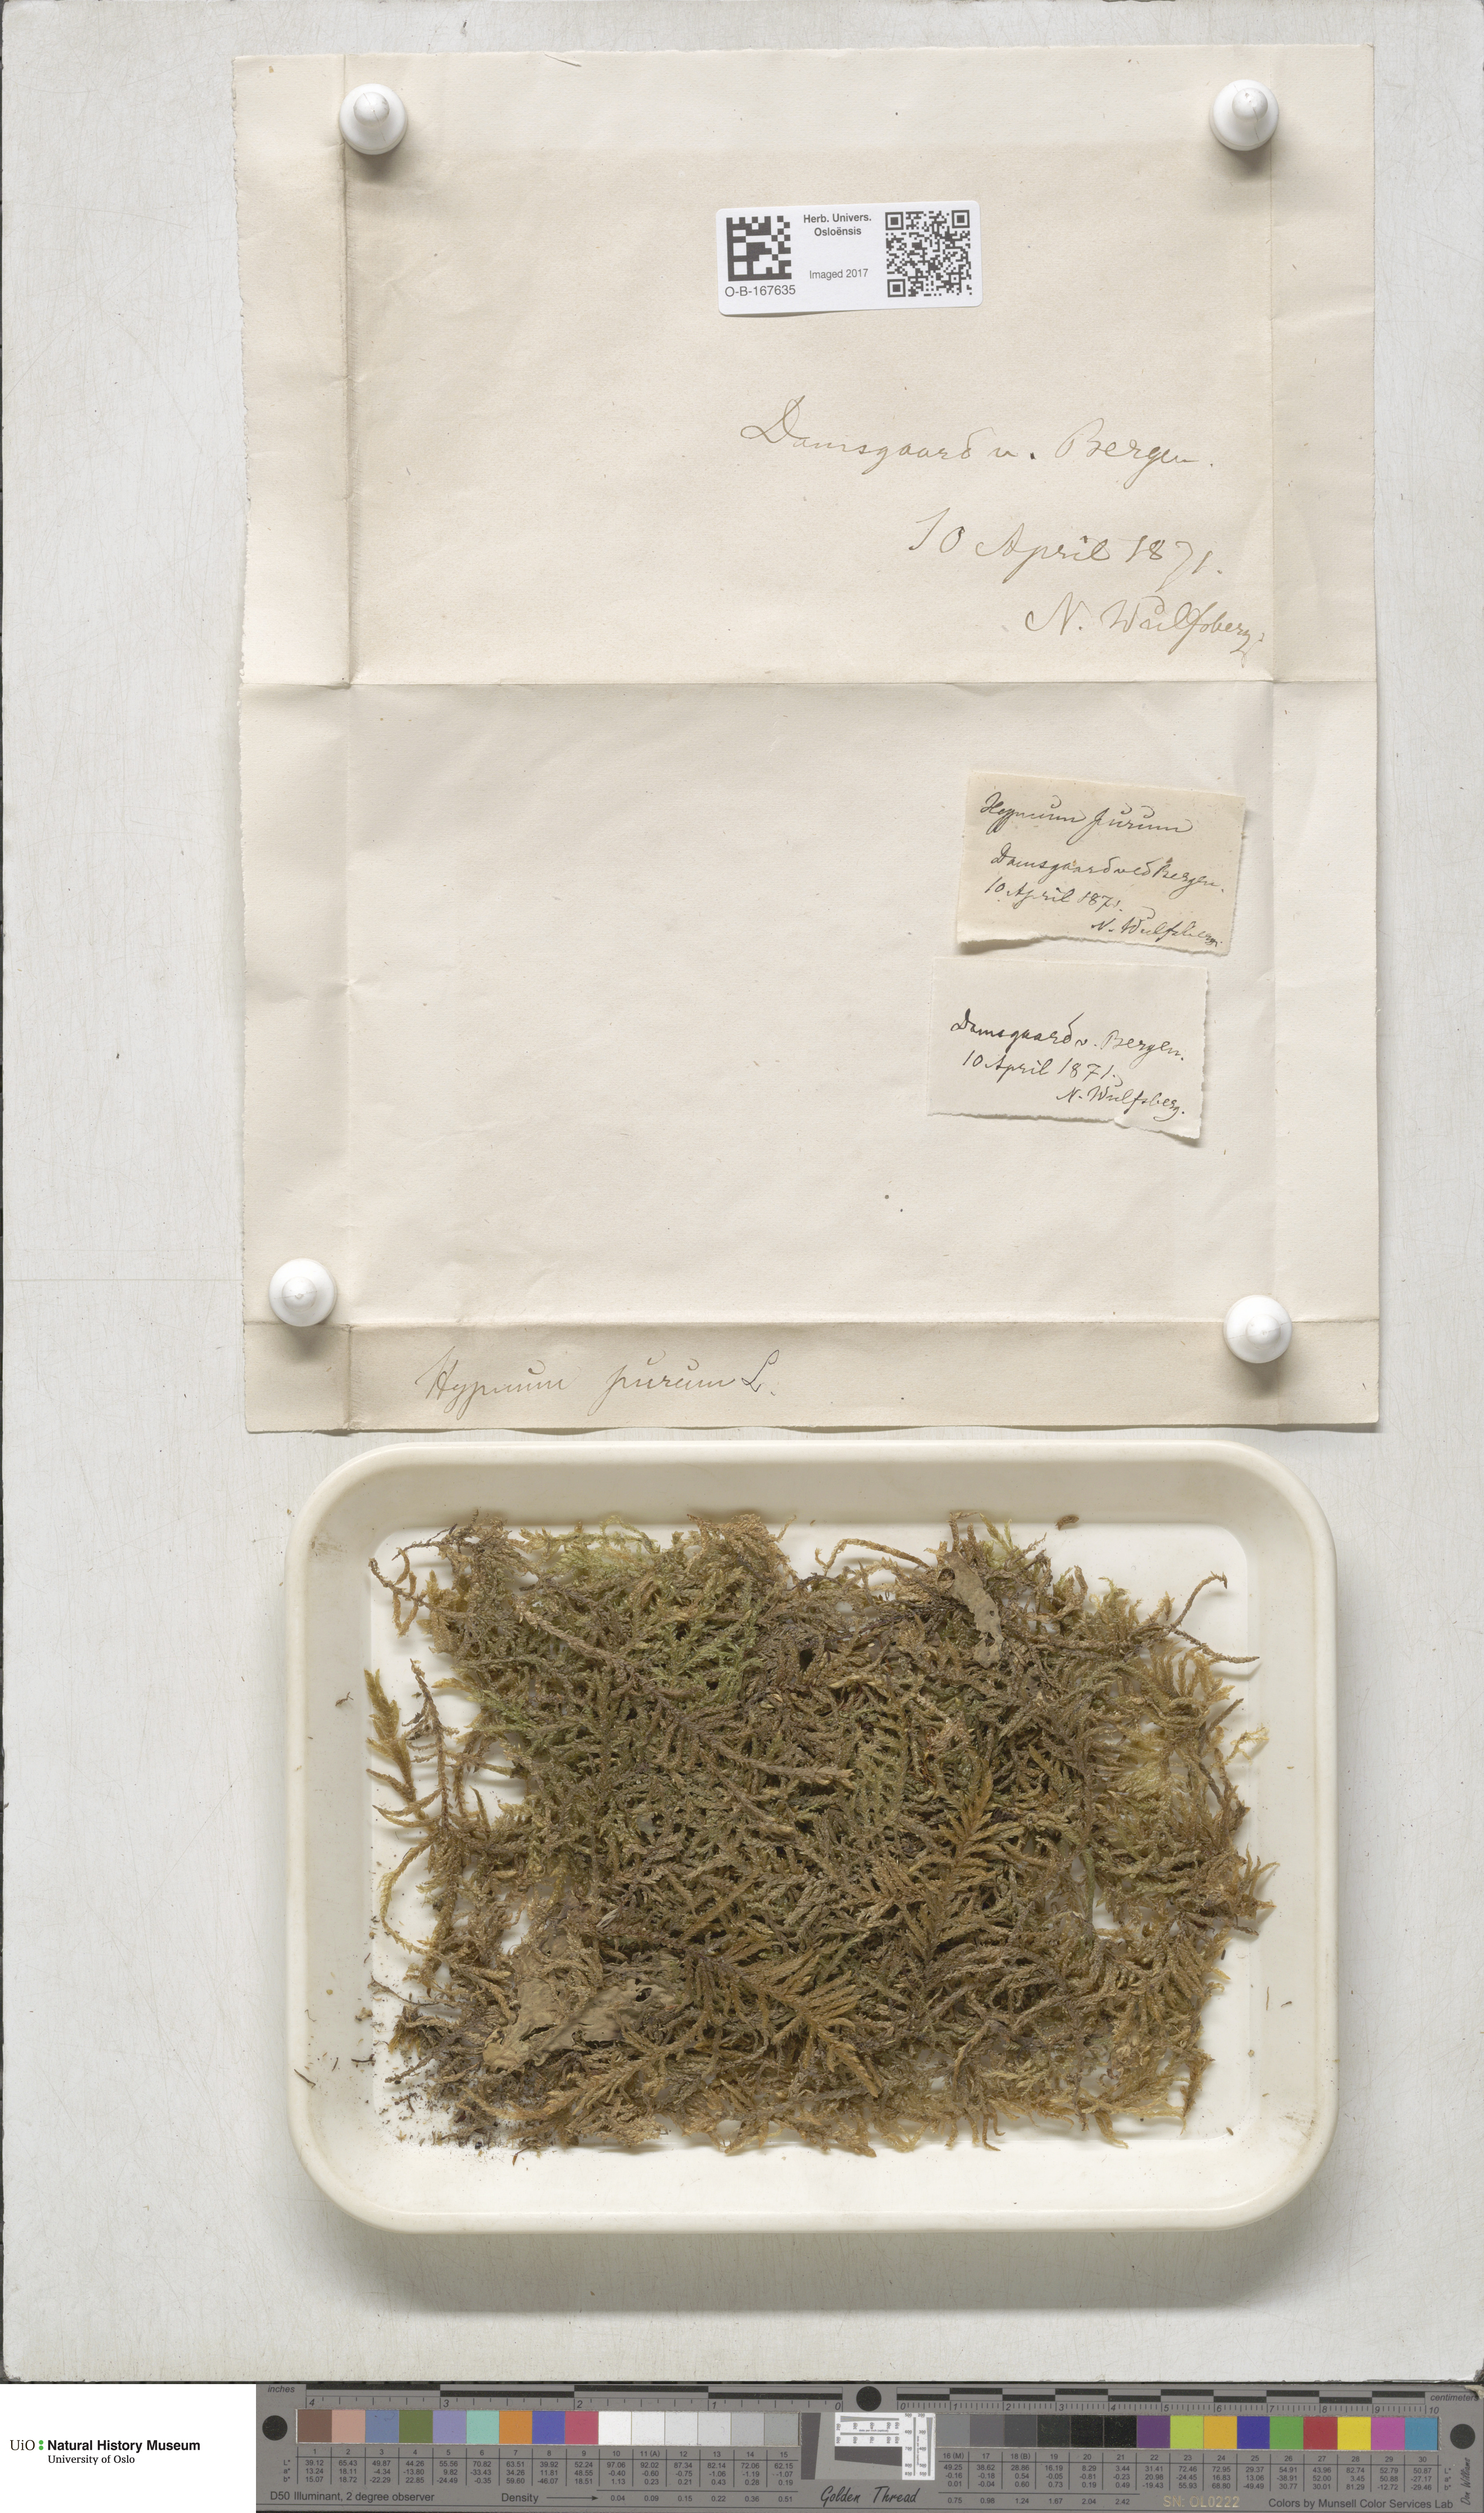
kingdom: Plantae
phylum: Bryophyta
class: Bryopsida
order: Hypnales
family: Brachytheciaceae
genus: Pseudoscleropodium
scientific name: Pseudoscleropodium purum
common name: Neat feather-moss
